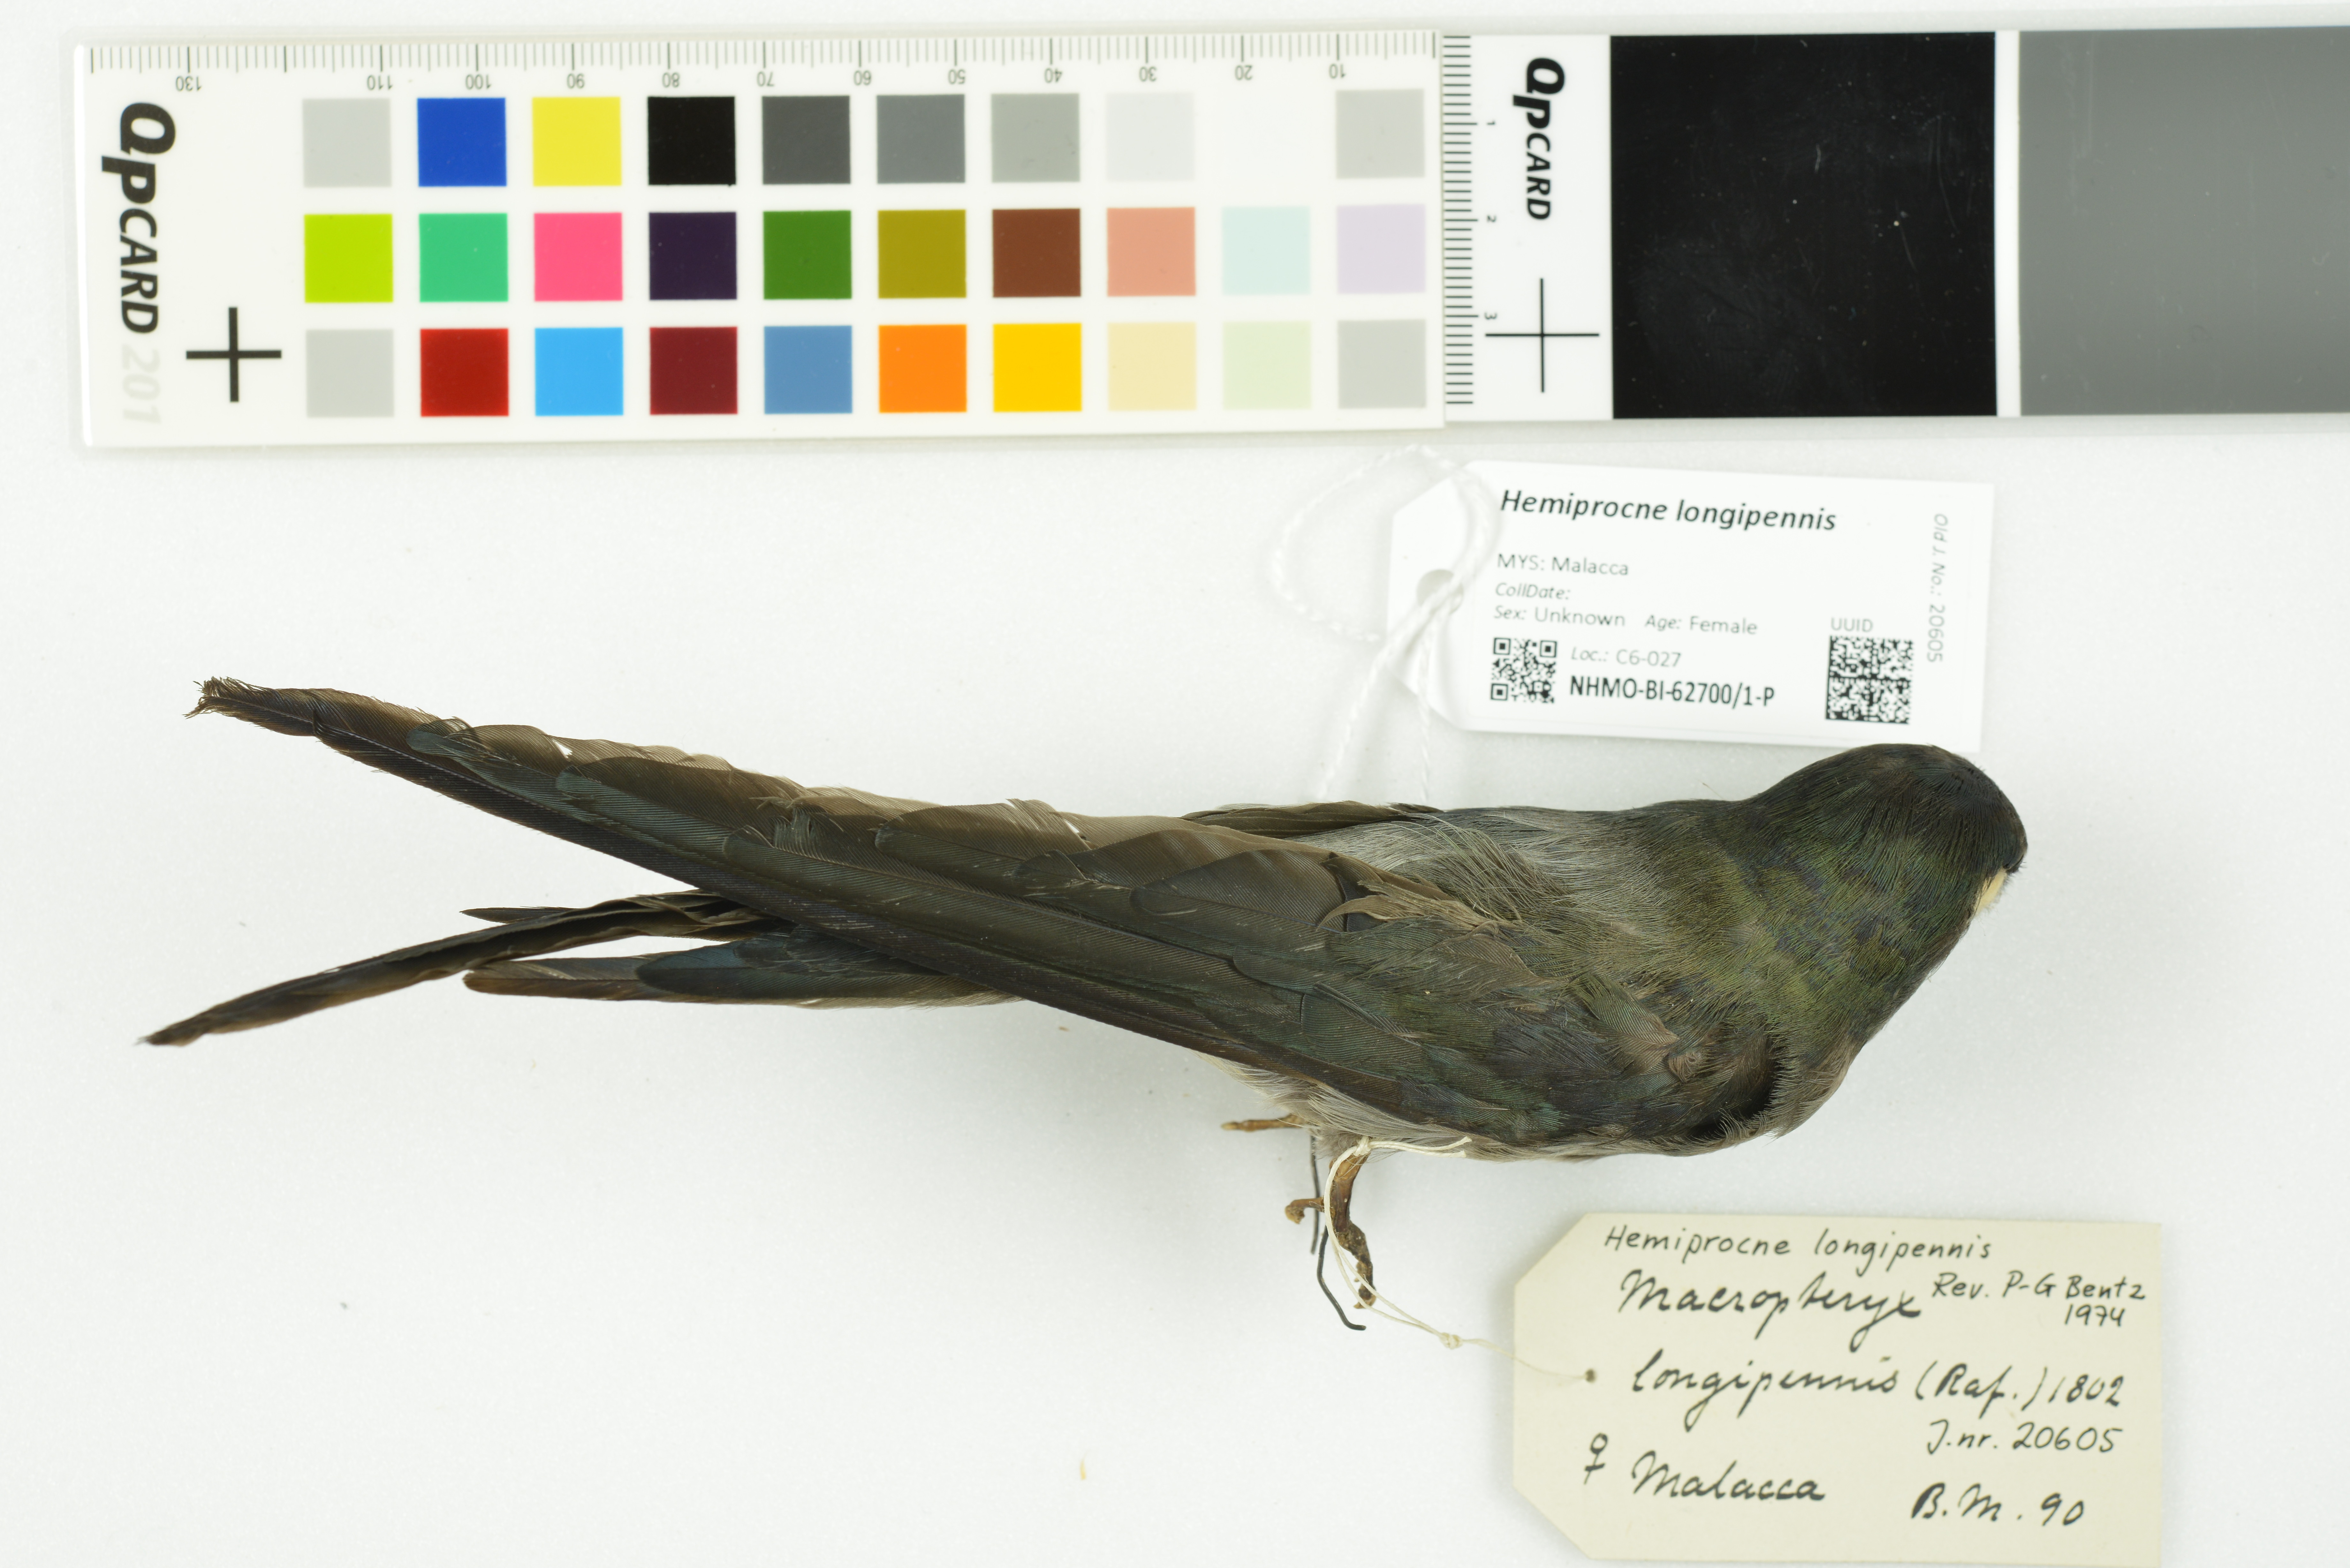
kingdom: Animalia
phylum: Chordata
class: Aves
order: Apodiformes
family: Hemiprocnidae
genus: Hemiprocne
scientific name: Hemiprocne longipennis
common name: Grey-rumped treeswift
